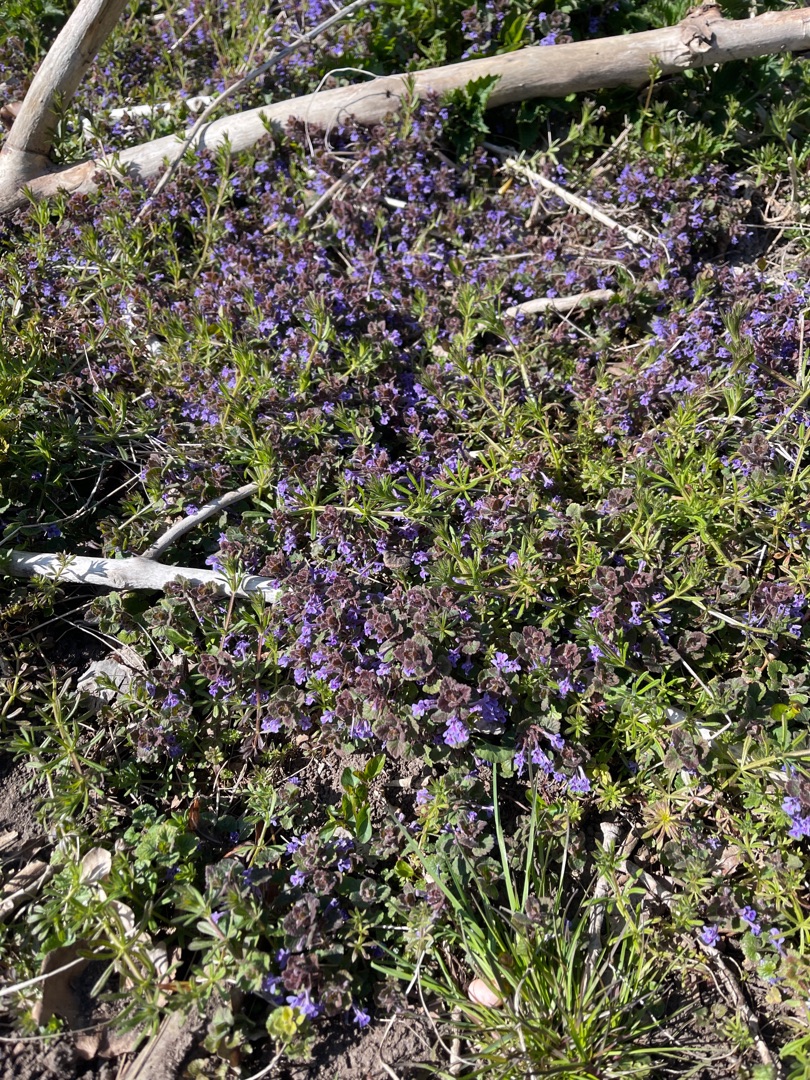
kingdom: Plantae
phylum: Tracheophyta
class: Magnoliopsida
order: Lamiales
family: Lamiaceae
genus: Glechoma
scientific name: Glechoma hederacea
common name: Korsknap
